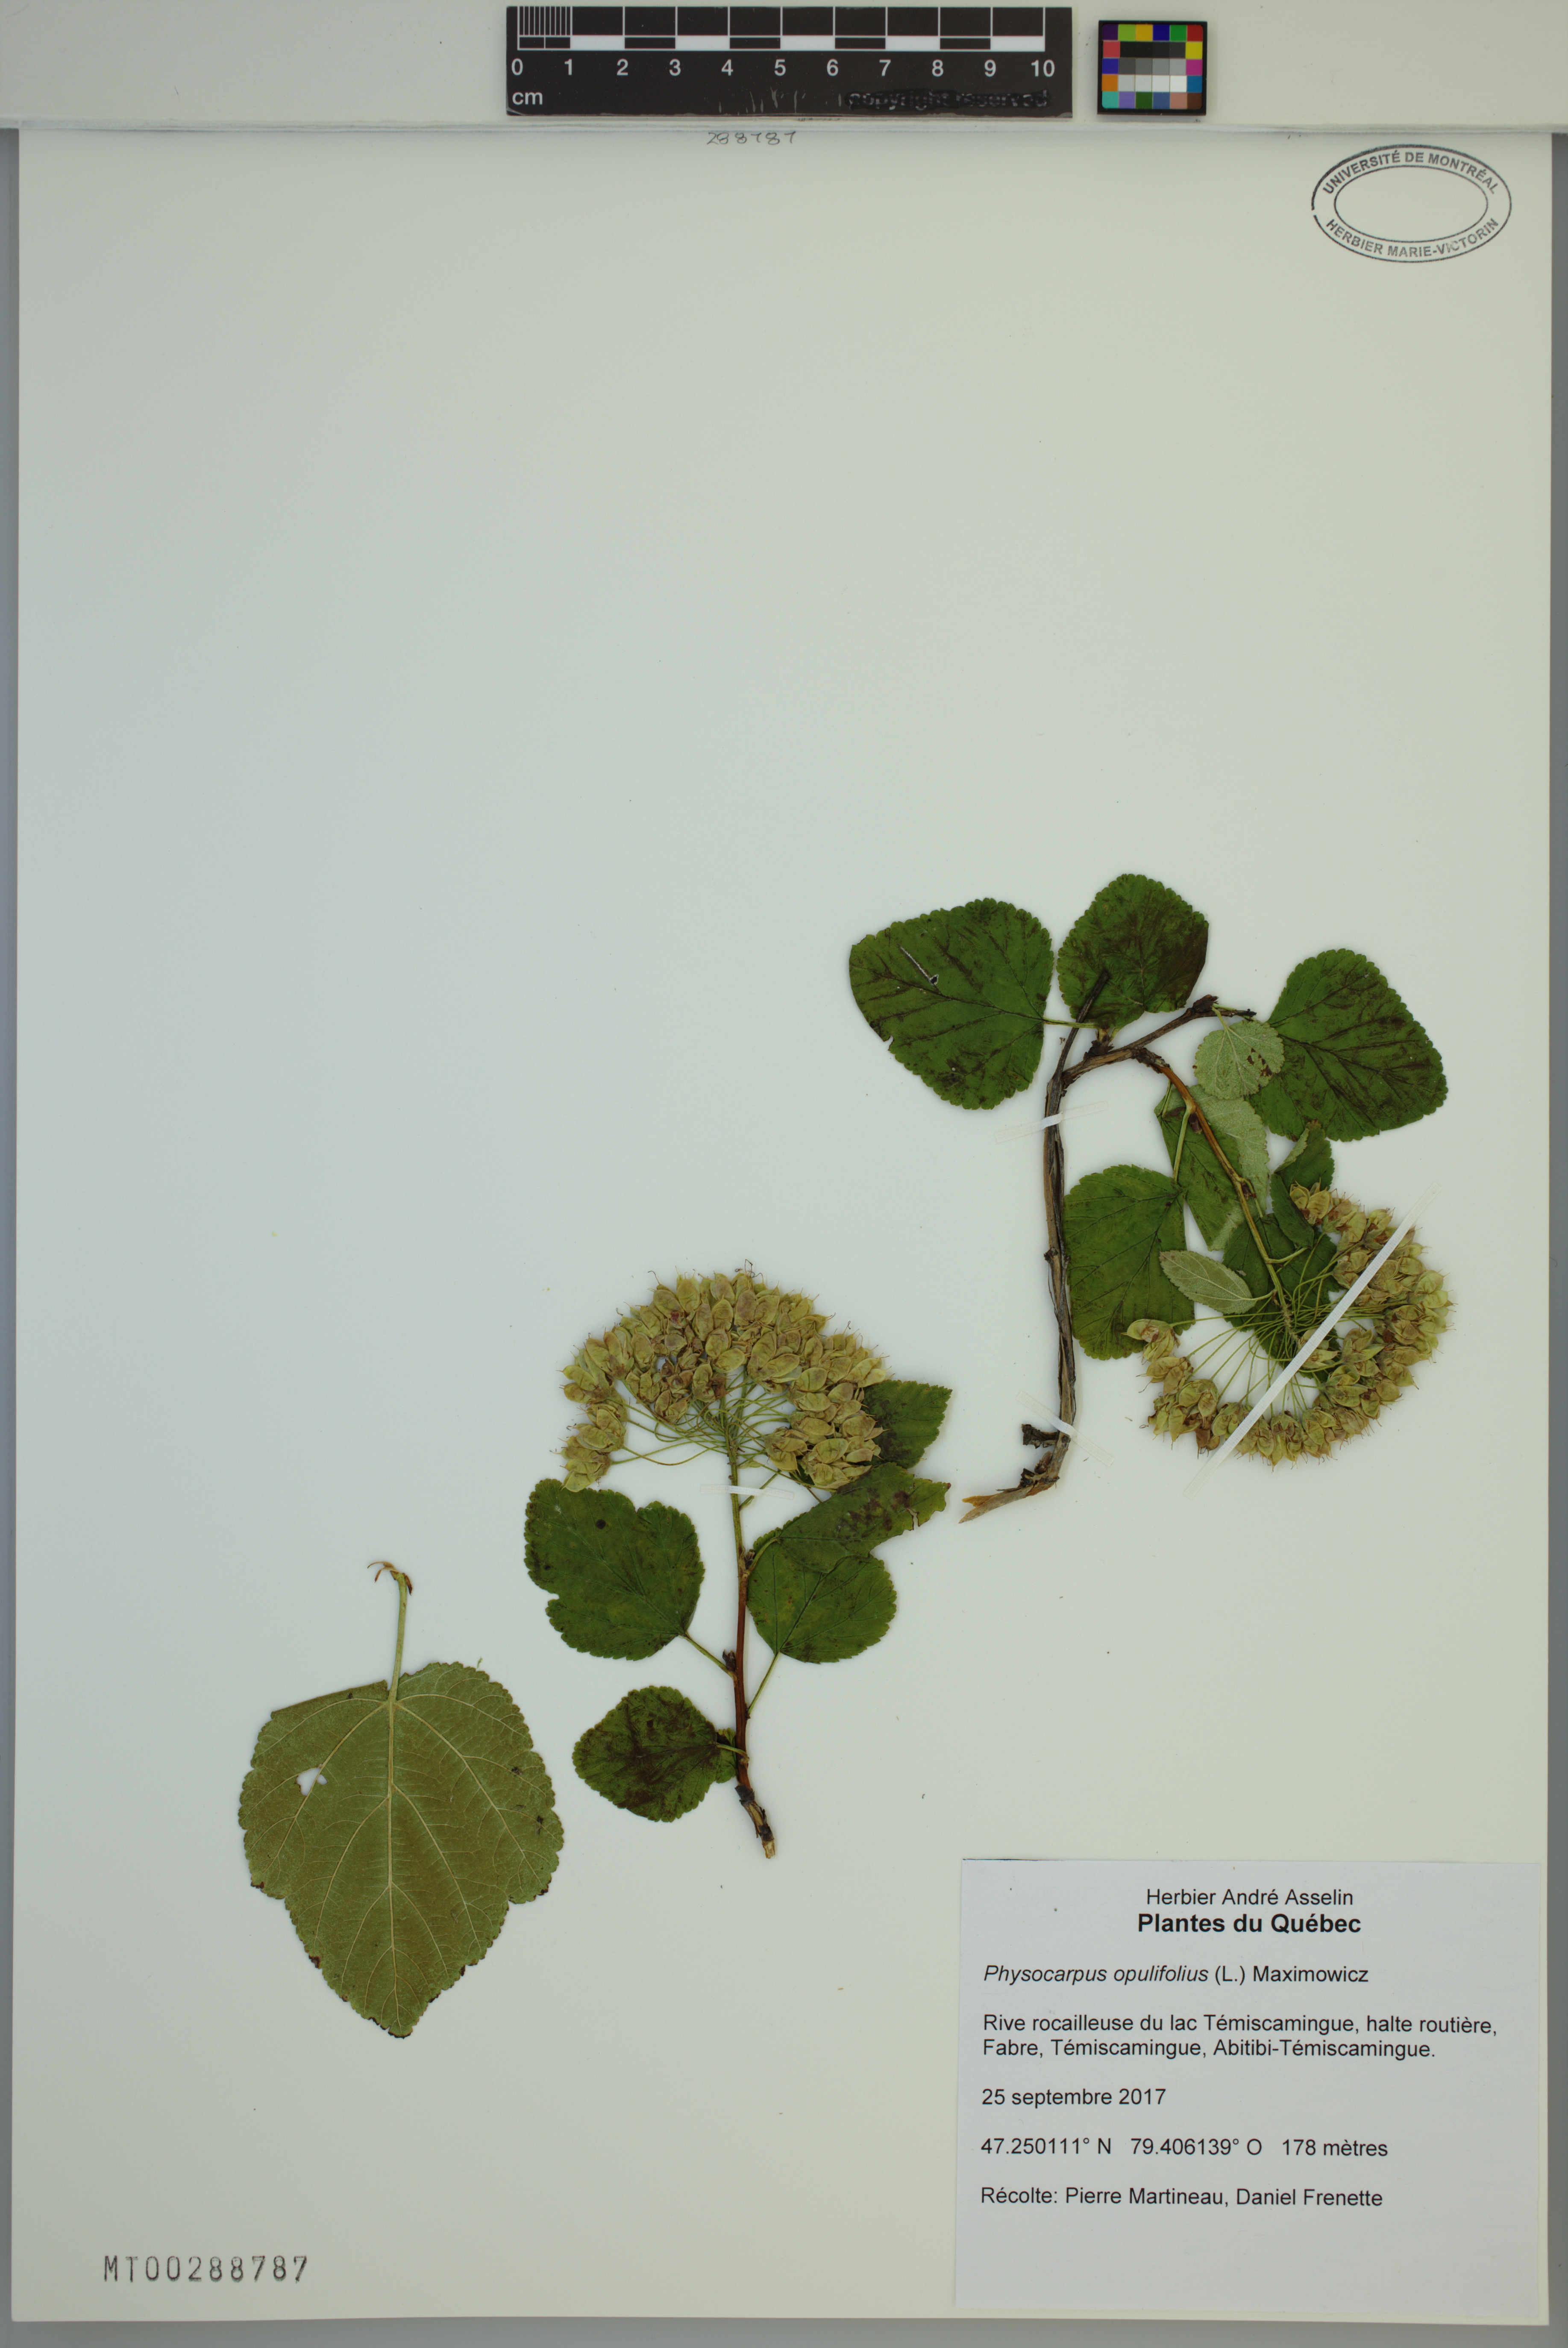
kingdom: Plantae
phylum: Tracheophyta
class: Magnoliopsida
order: Rosales
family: Rosaceae
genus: Physocarpus
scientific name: Physocarpus opulifolius
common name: Ninebark
